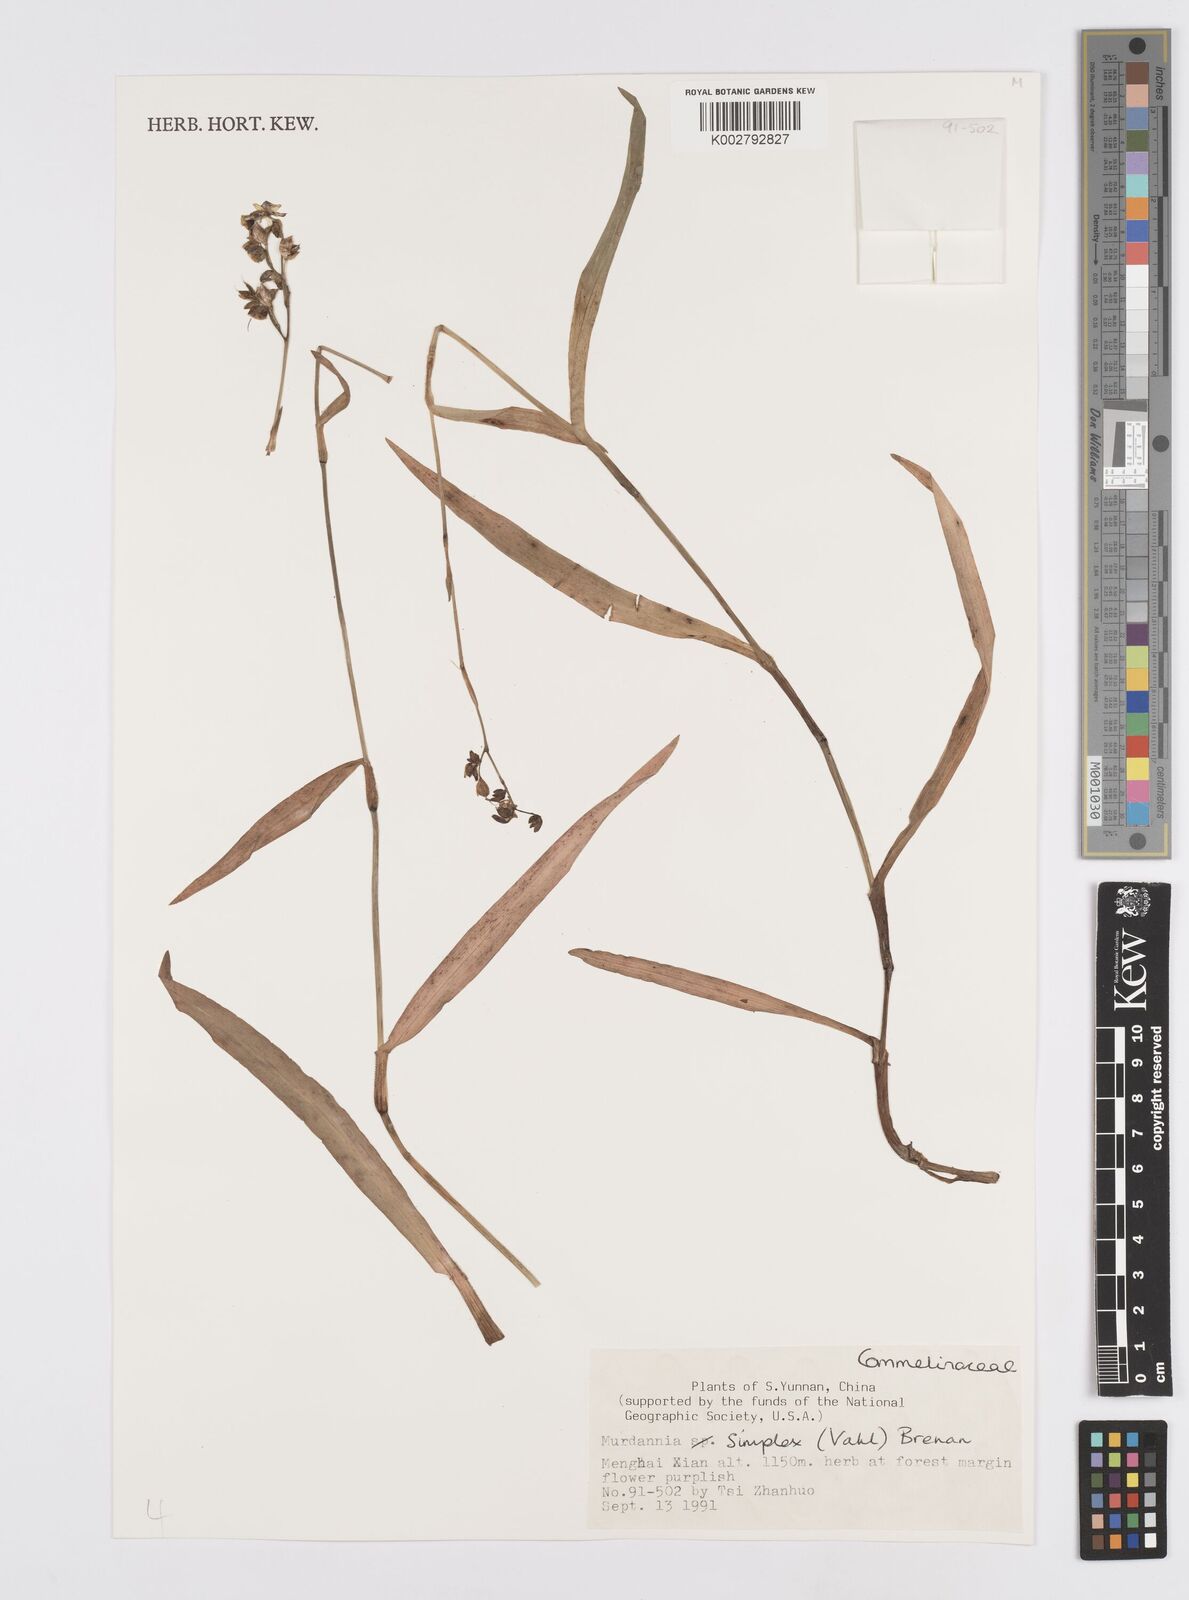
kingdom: Plantae
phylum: Tracheophyta
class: Liliopsida
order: Commelinales
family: Commelinaceae
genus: Murdannia
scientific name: Murdannia
